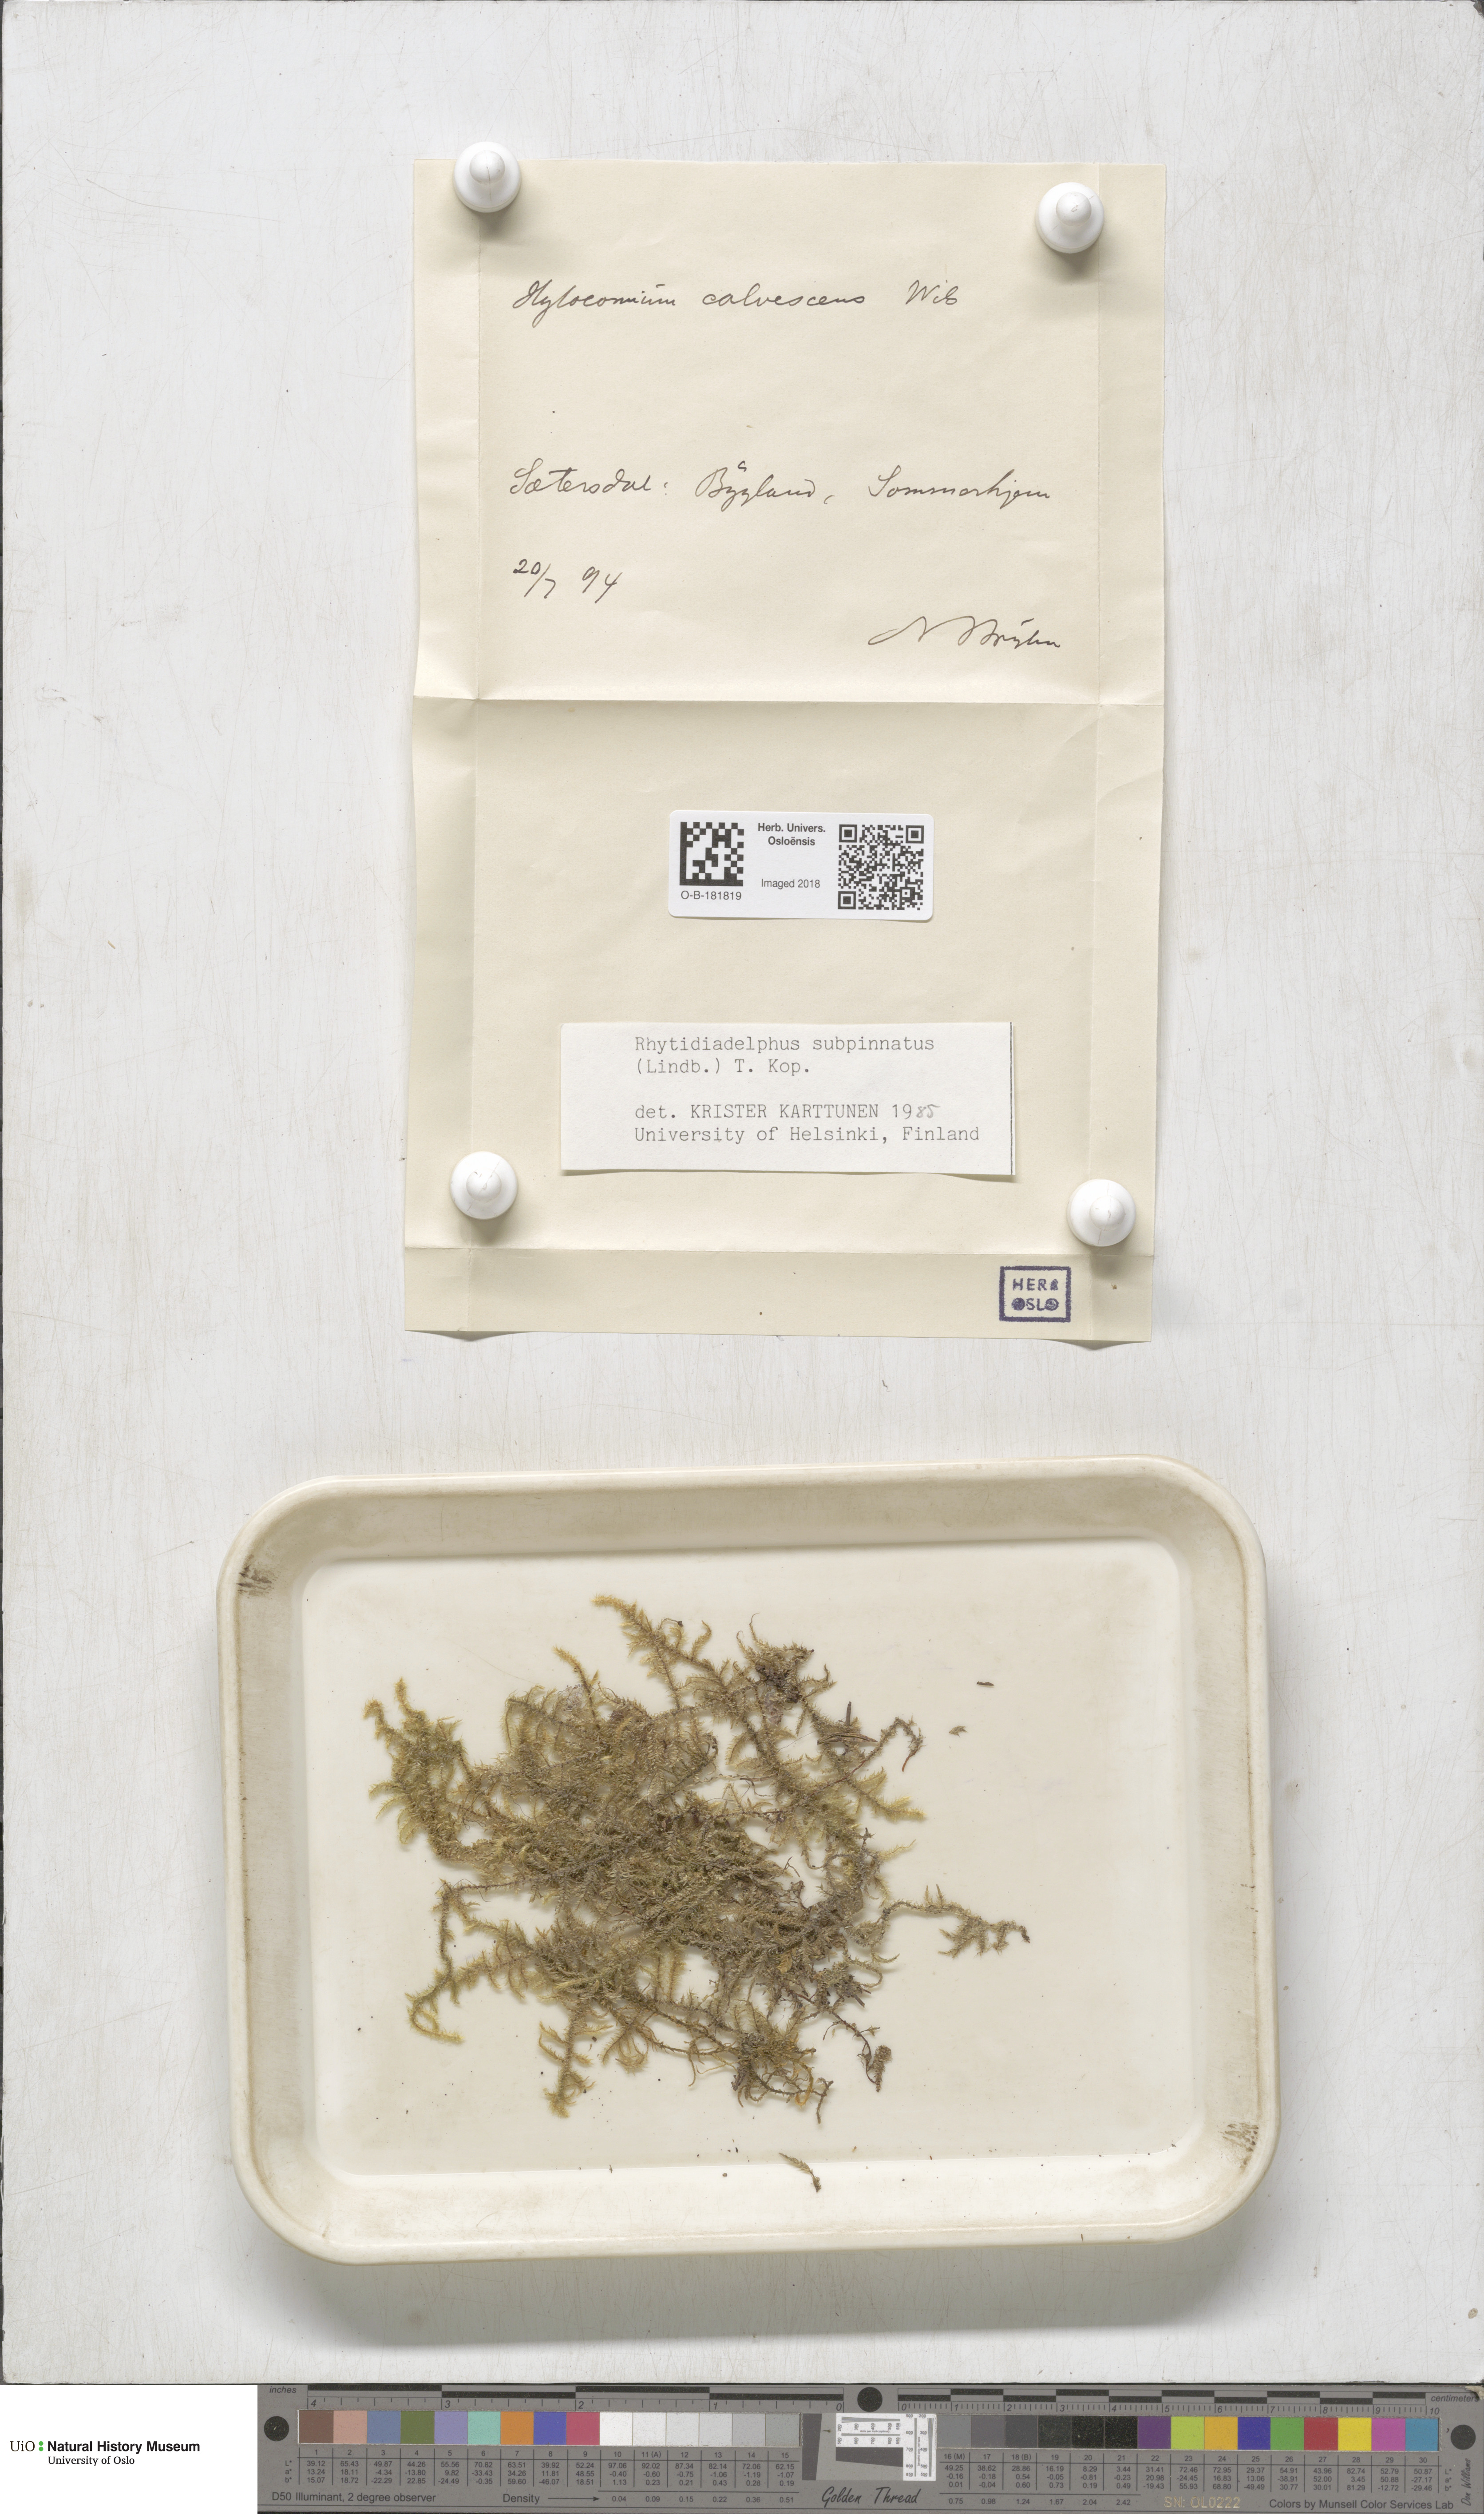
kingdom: Plantae
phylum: Bryophyta
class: Bryopsida
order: Hypnales
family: Hylocomiaceae
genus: Rhytidiadelphus
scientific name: Rhytidiadelphus subpinnatus
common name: Subpinnate gooseneck moss
